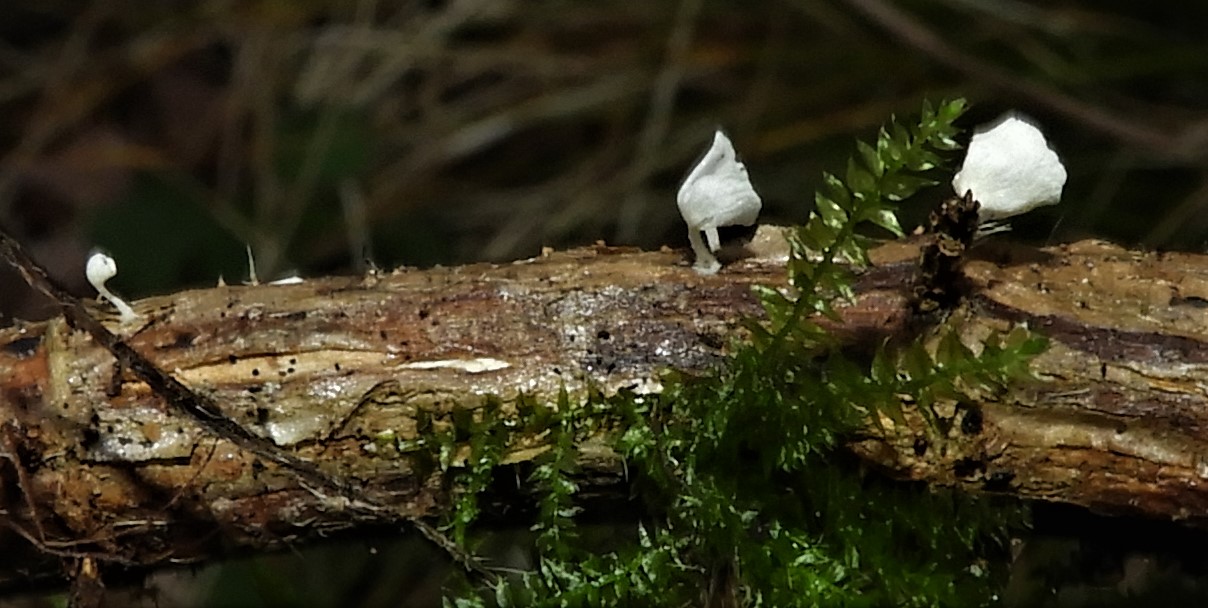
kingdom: Fungi
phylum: Basidiomycota
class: Agaricomycetes
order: Agaricales
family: Marasmiaceae
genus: Calyptella
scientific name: Calyptella capula
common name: hvidlig nældehue
